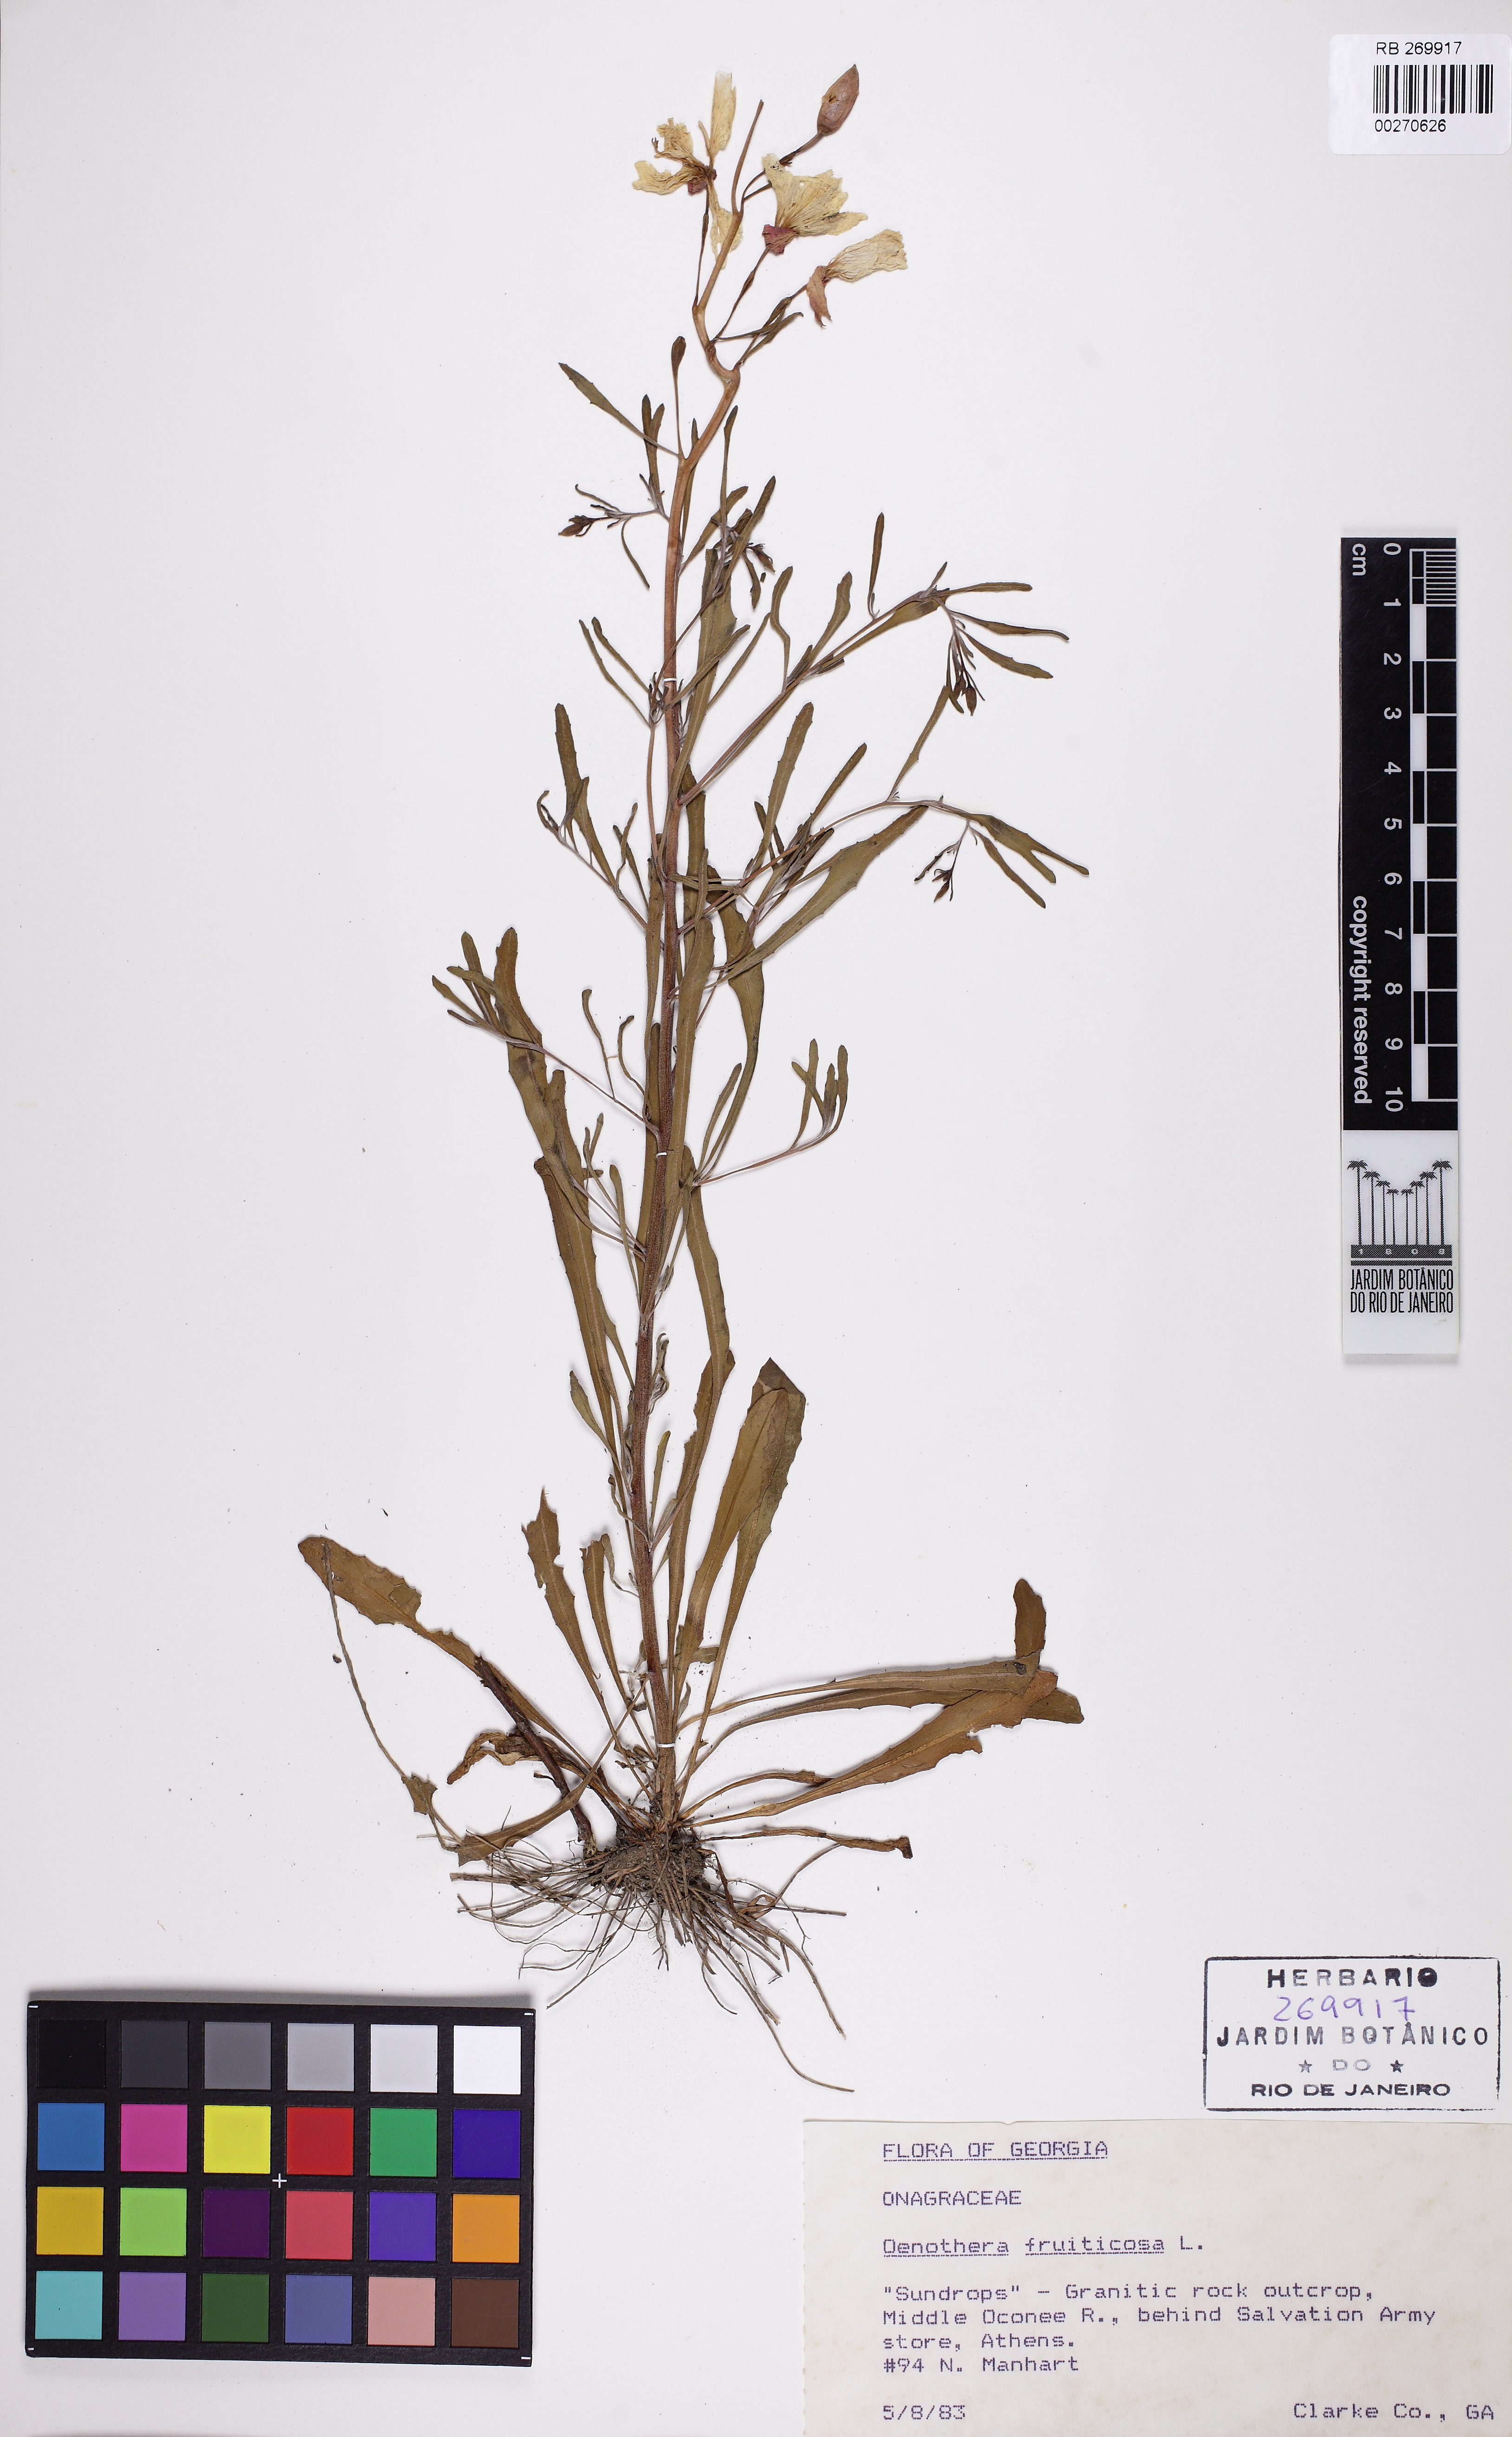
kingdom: Plantae
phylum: Tracheophyta
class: Magnoliopsida
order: Myrtales
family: Onagraceae
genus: Oenothera
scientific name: Oenothera fruticosa
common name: Southern sundrops
